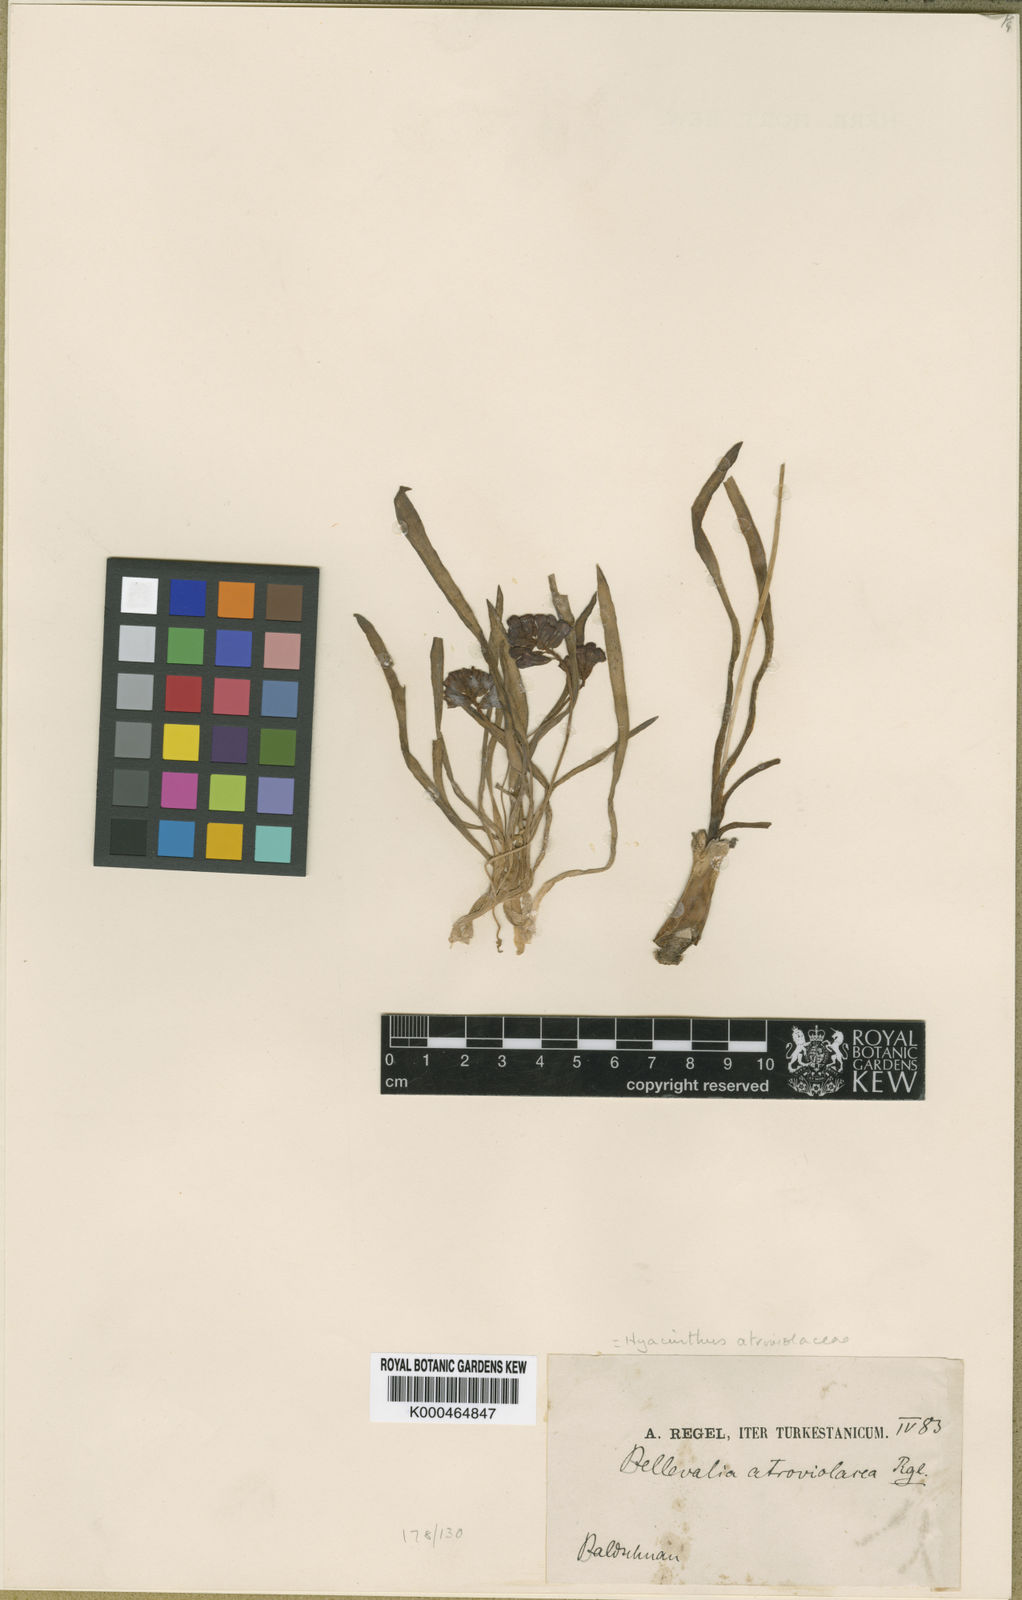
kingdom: Plantae
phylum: Tracheophyta
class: Liliopsida
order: Asparagales
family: Asparagaceae
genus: Bellevalia
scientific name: Bellevalia turkestanica
